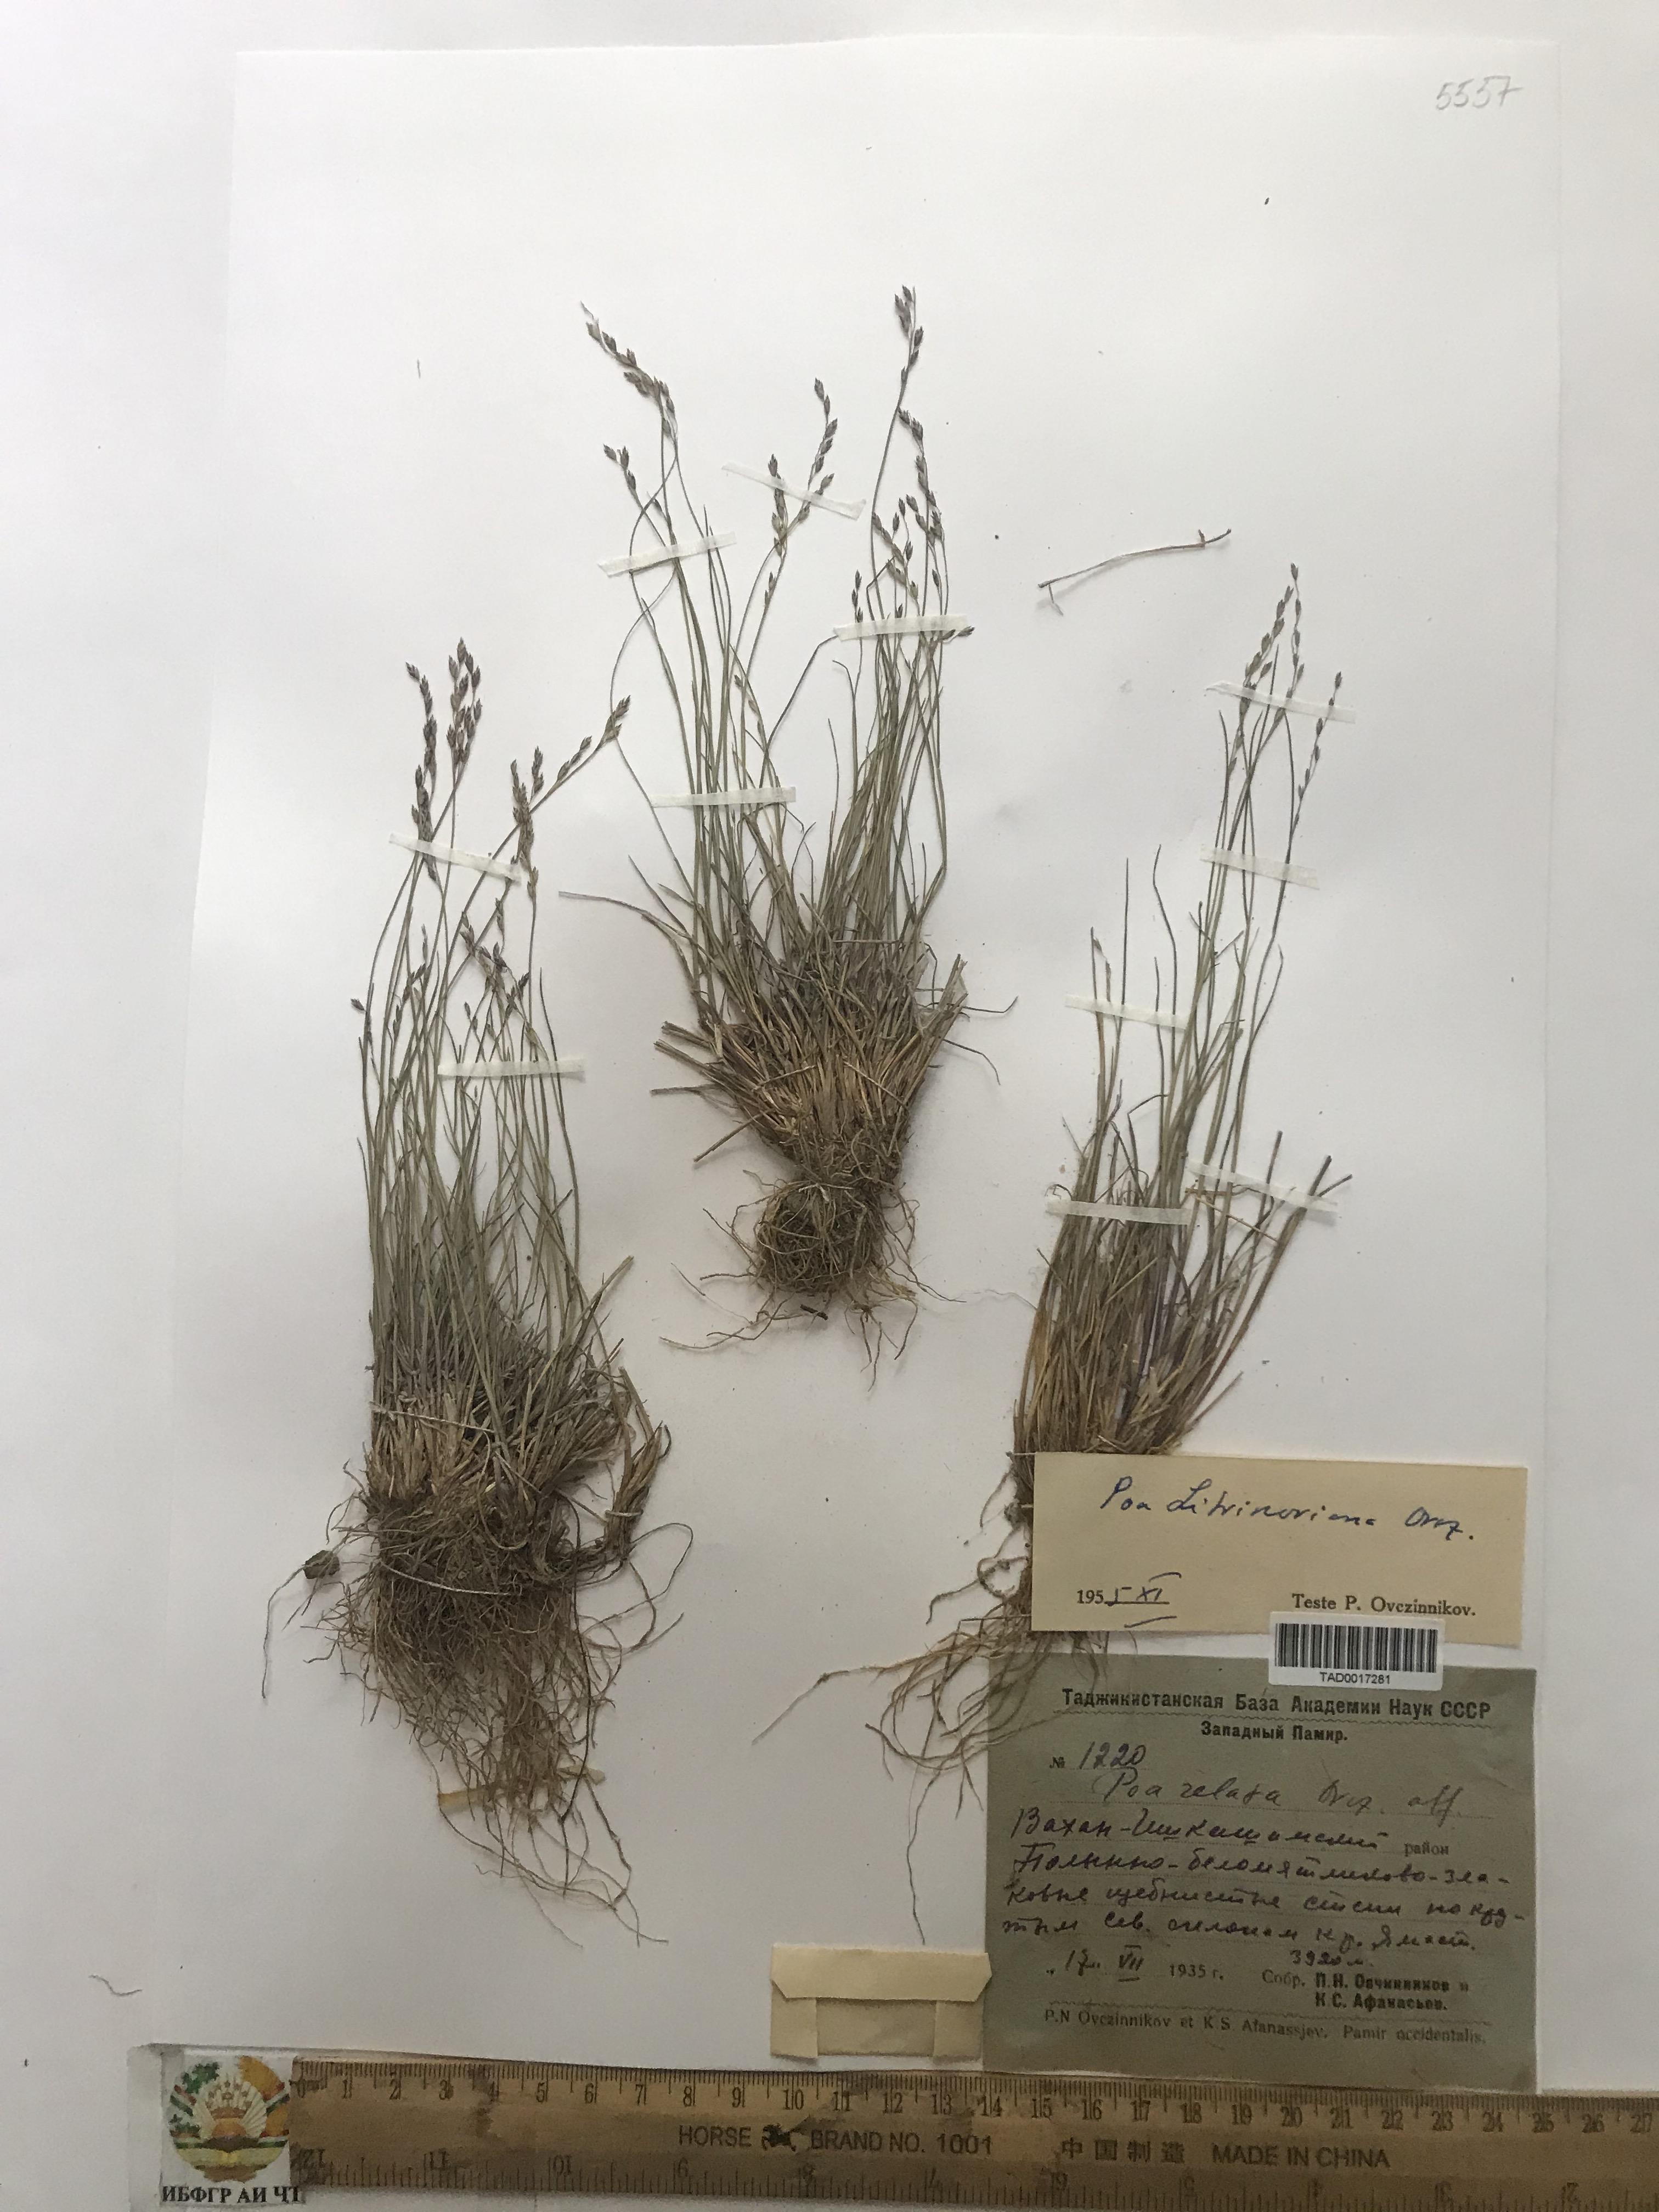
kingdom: Plantae
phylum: Tracheophyta
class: Liliopsida
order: Poales
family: Poaceae
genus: Poa
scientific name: Poa glauca
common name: Glaucous bluegrass
